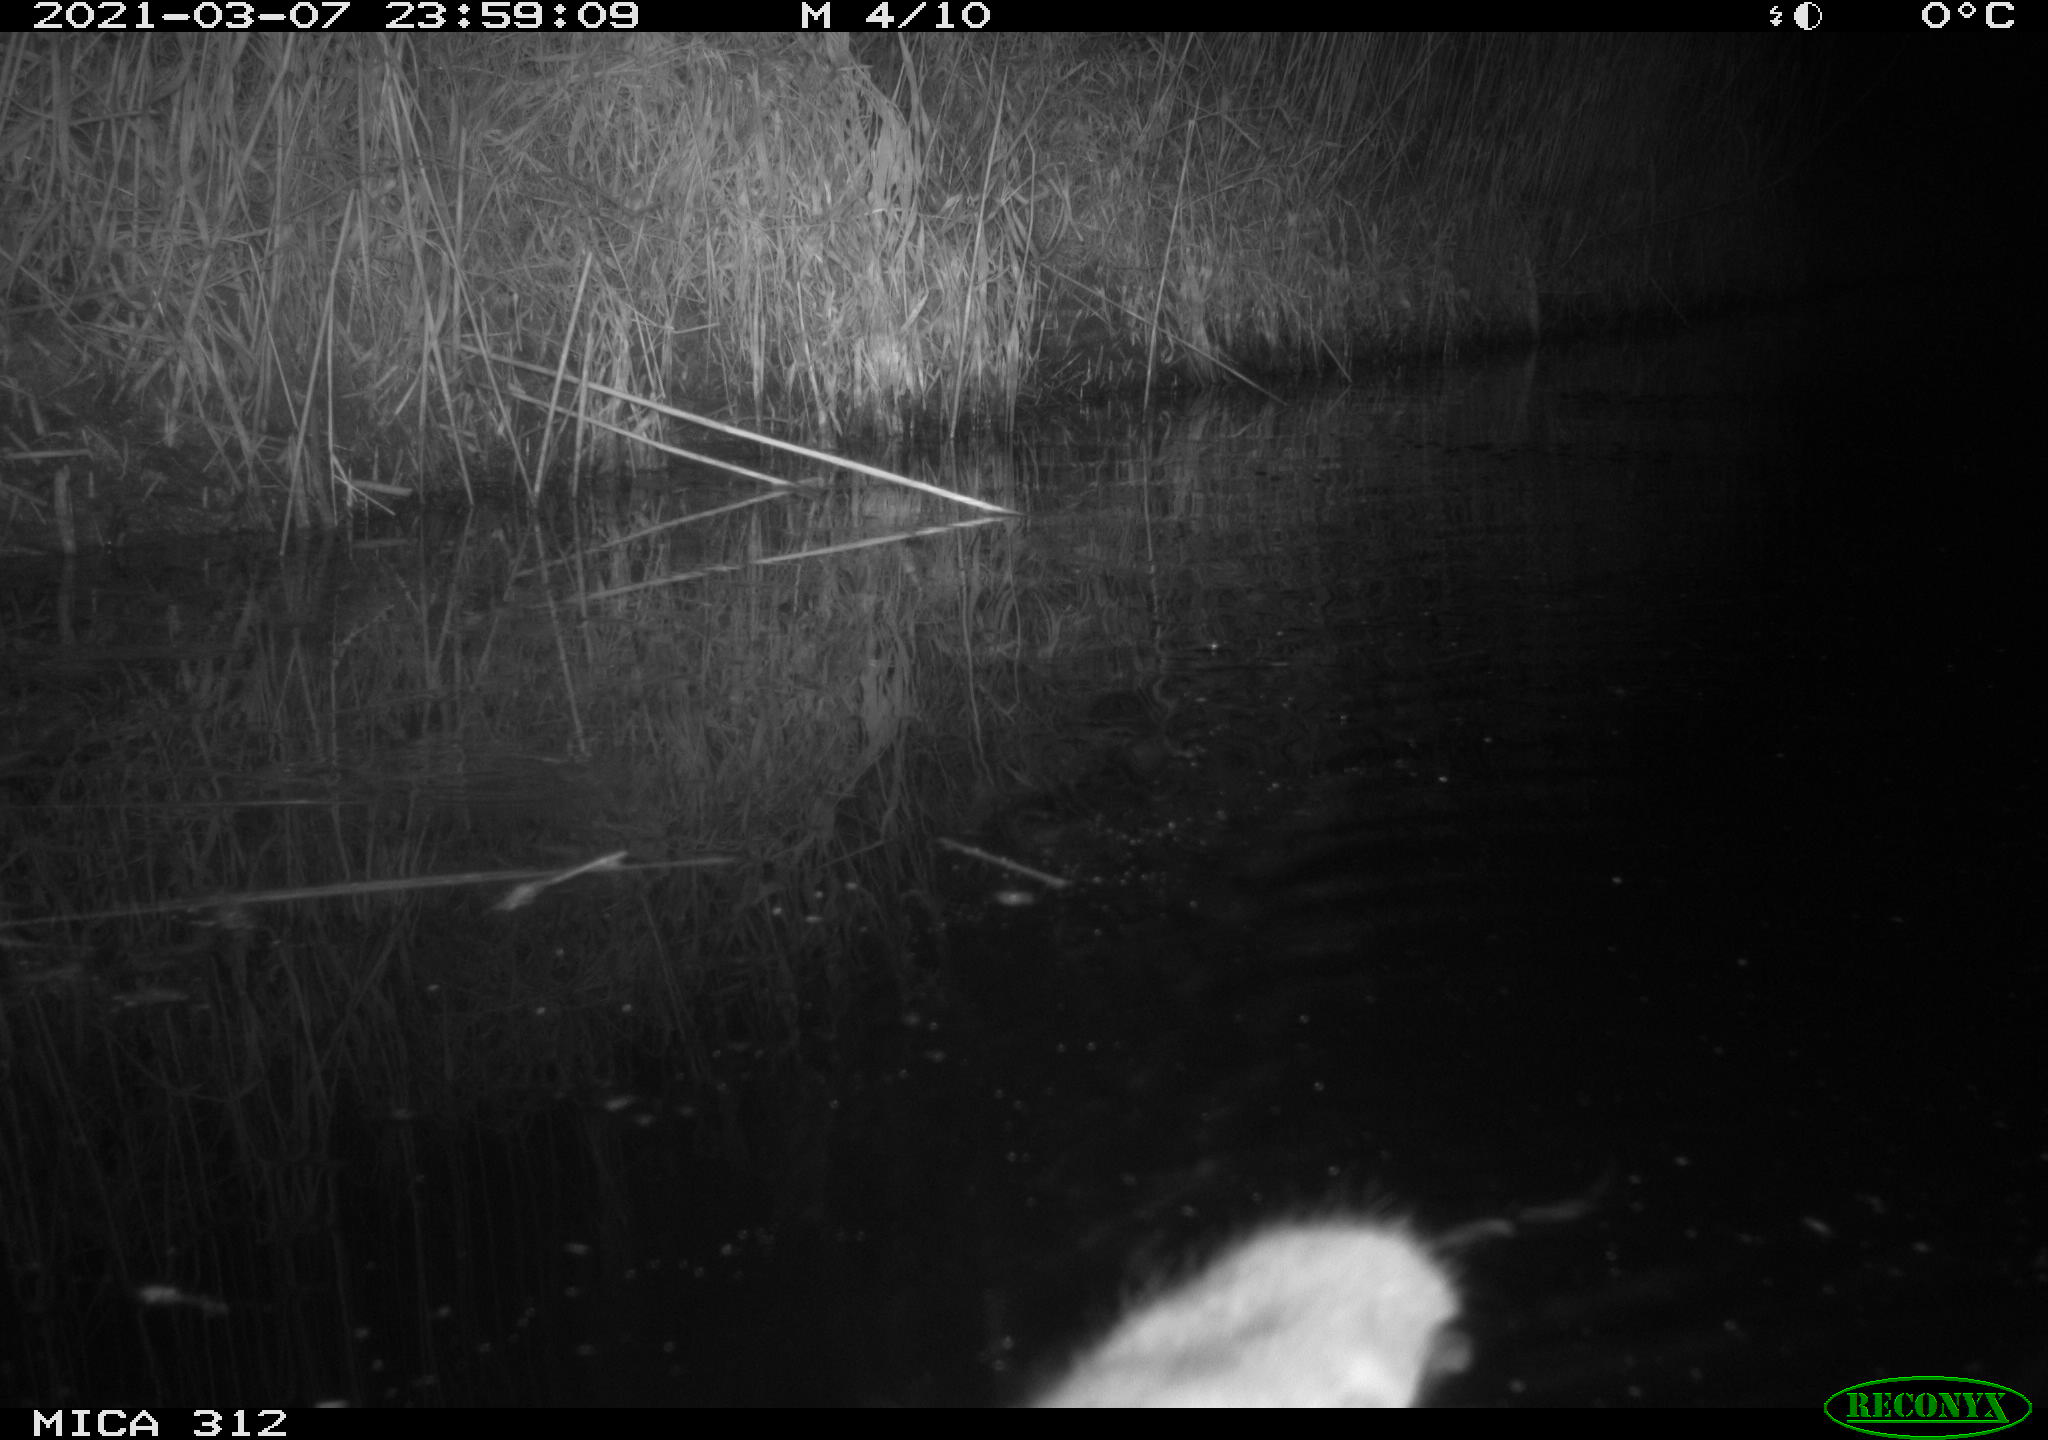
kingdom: Animalia
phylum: Chordata
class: Mammalia
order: Rodentia
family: Muridae
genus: Rattus
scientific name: Rattus norvegicus
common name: Brown rat
